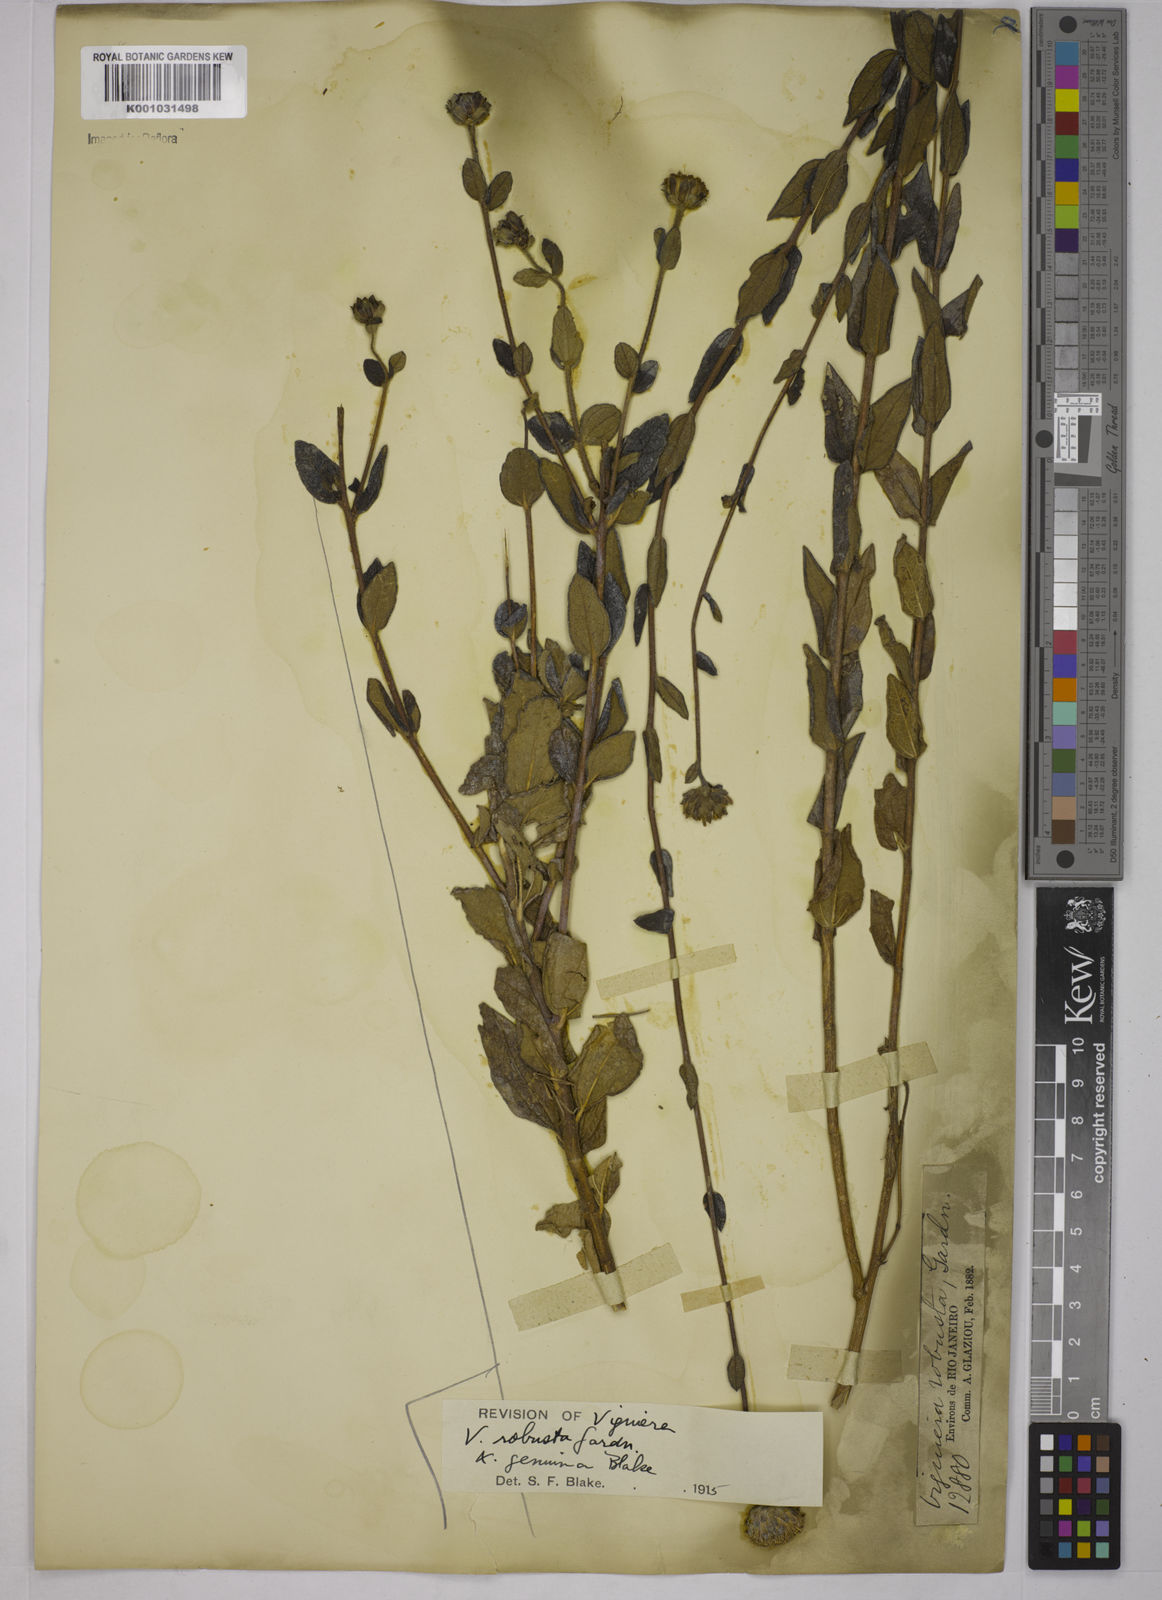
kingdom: Plantae
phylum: Tracheophyta
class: Magnoliopsida
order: Asterales
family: Asteraceae
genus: Aldama
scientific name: Aldama robusta
